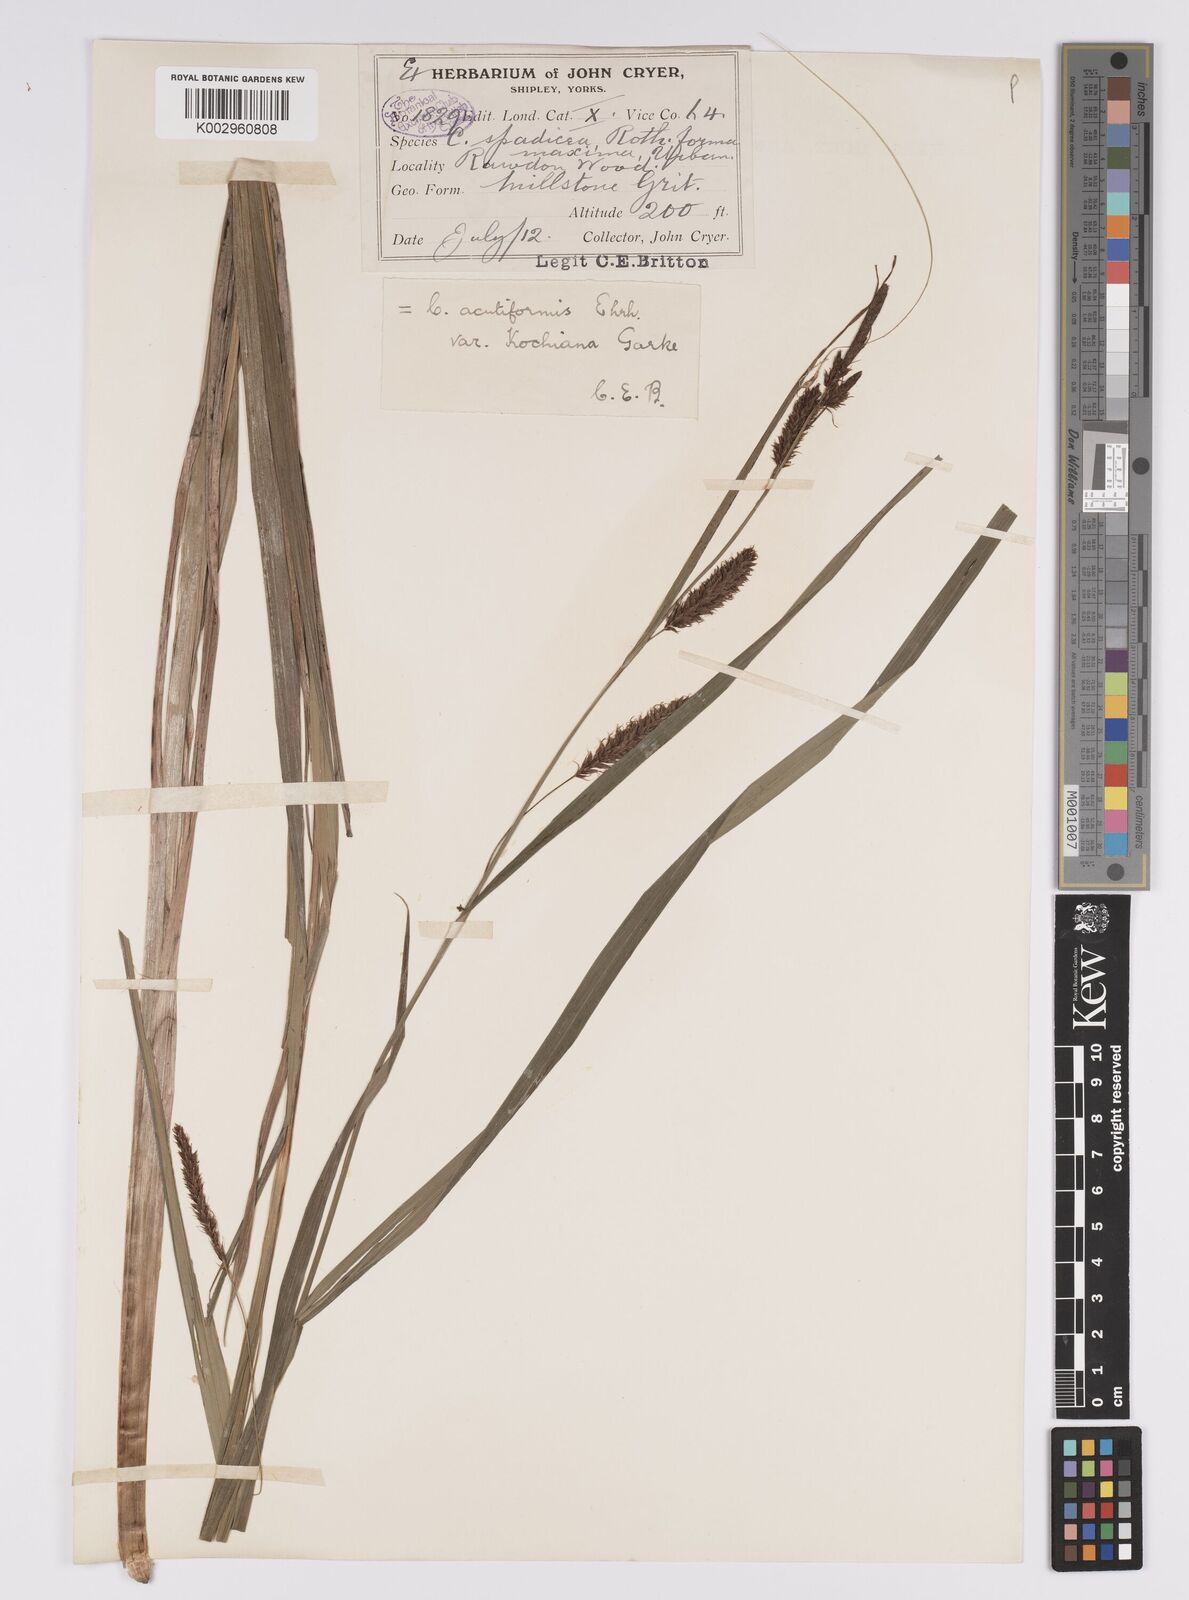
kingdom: Plantae
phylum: Tracheophyta
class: Liliopsida
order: Poales
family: Cyperaceae
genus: Carex
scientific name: Carex acutiformis
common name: Lesser pond-sedge
